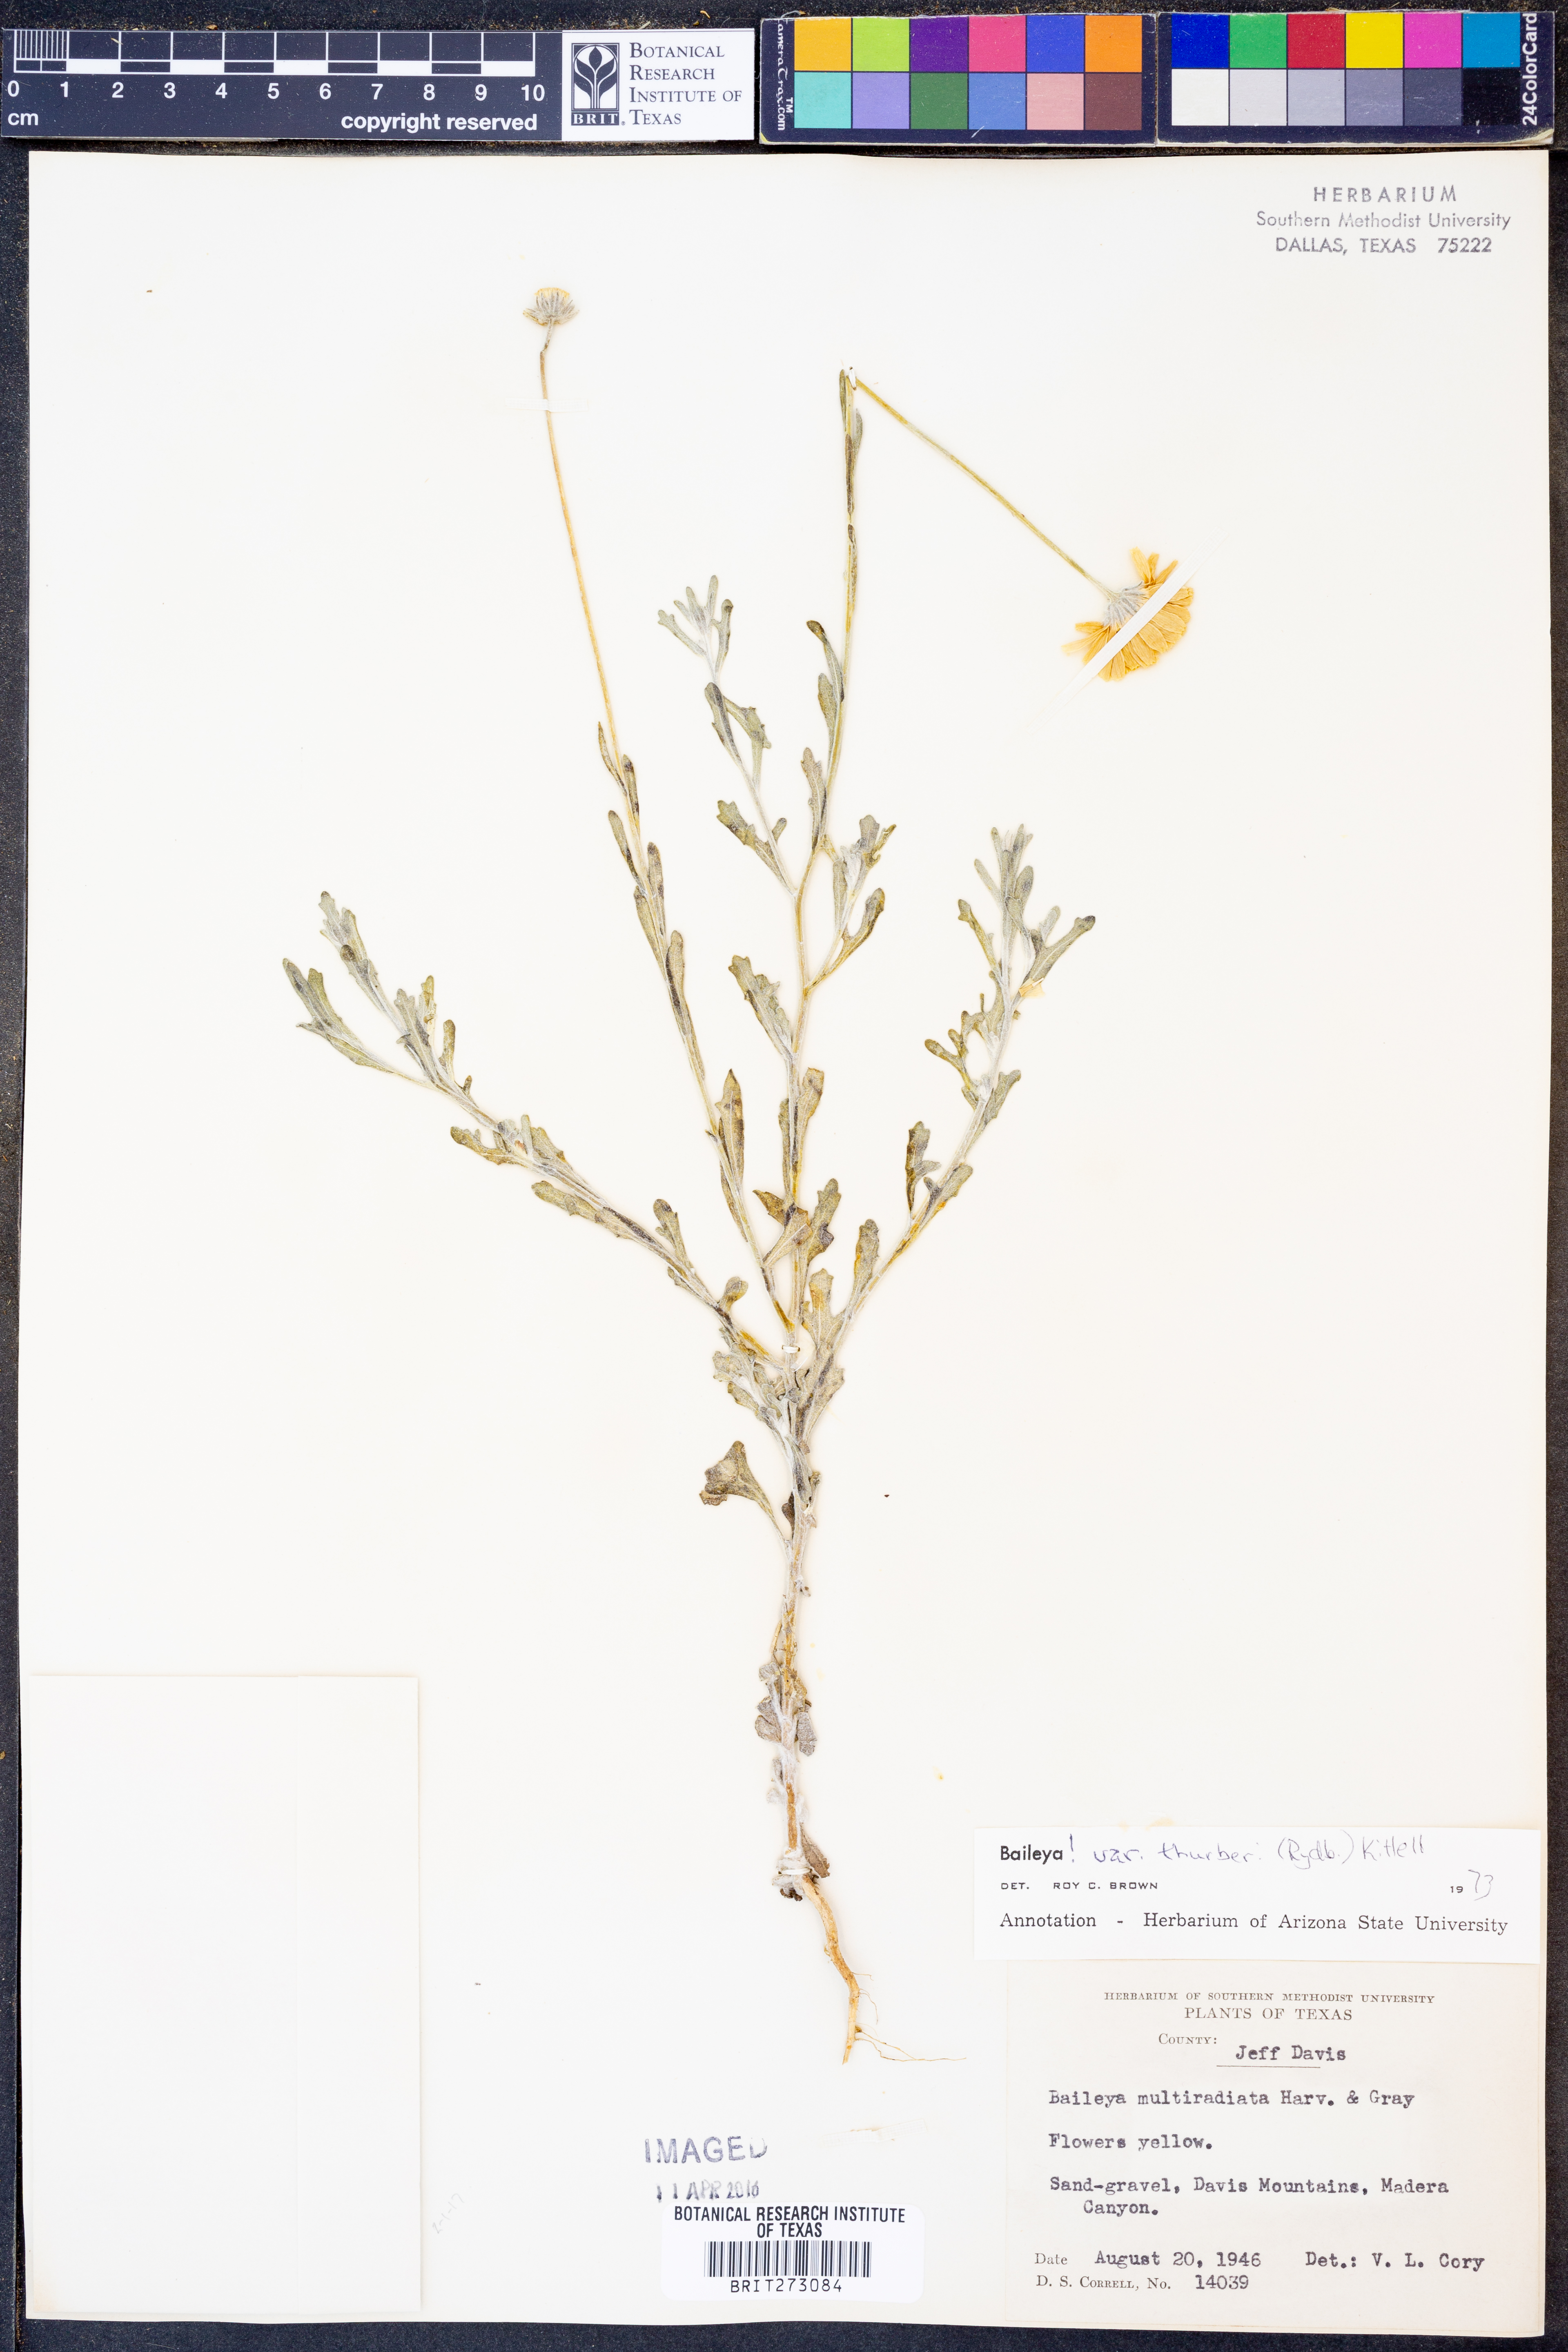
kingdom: Plantae
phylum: Tracheophyta
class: Magnoliopsida
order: Asterales
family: Asteraceae
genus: Baileya
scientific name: Baileya multiradiata
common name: Desert-marigold
